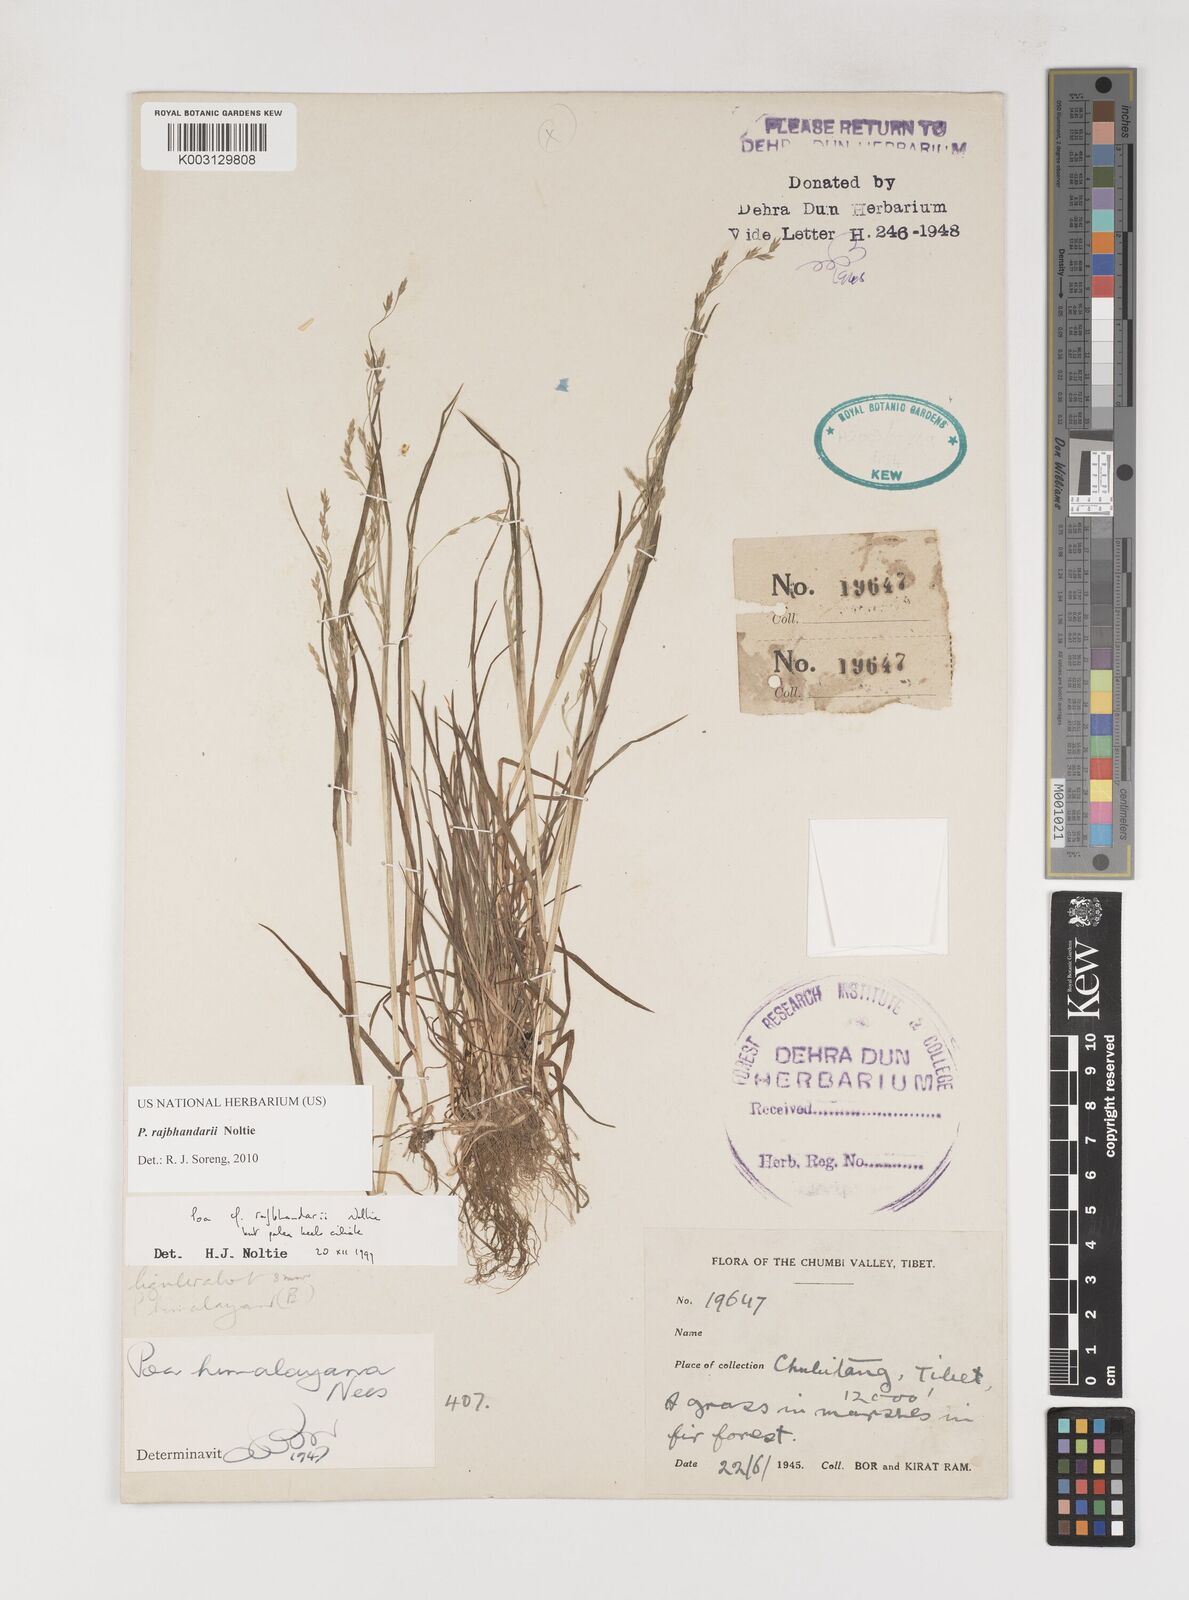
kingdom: Plantae
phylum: Tracheophyta
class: Liliopsida
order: Poales
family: Poaceae
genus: Poa
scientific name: Poa rajbhandarii
